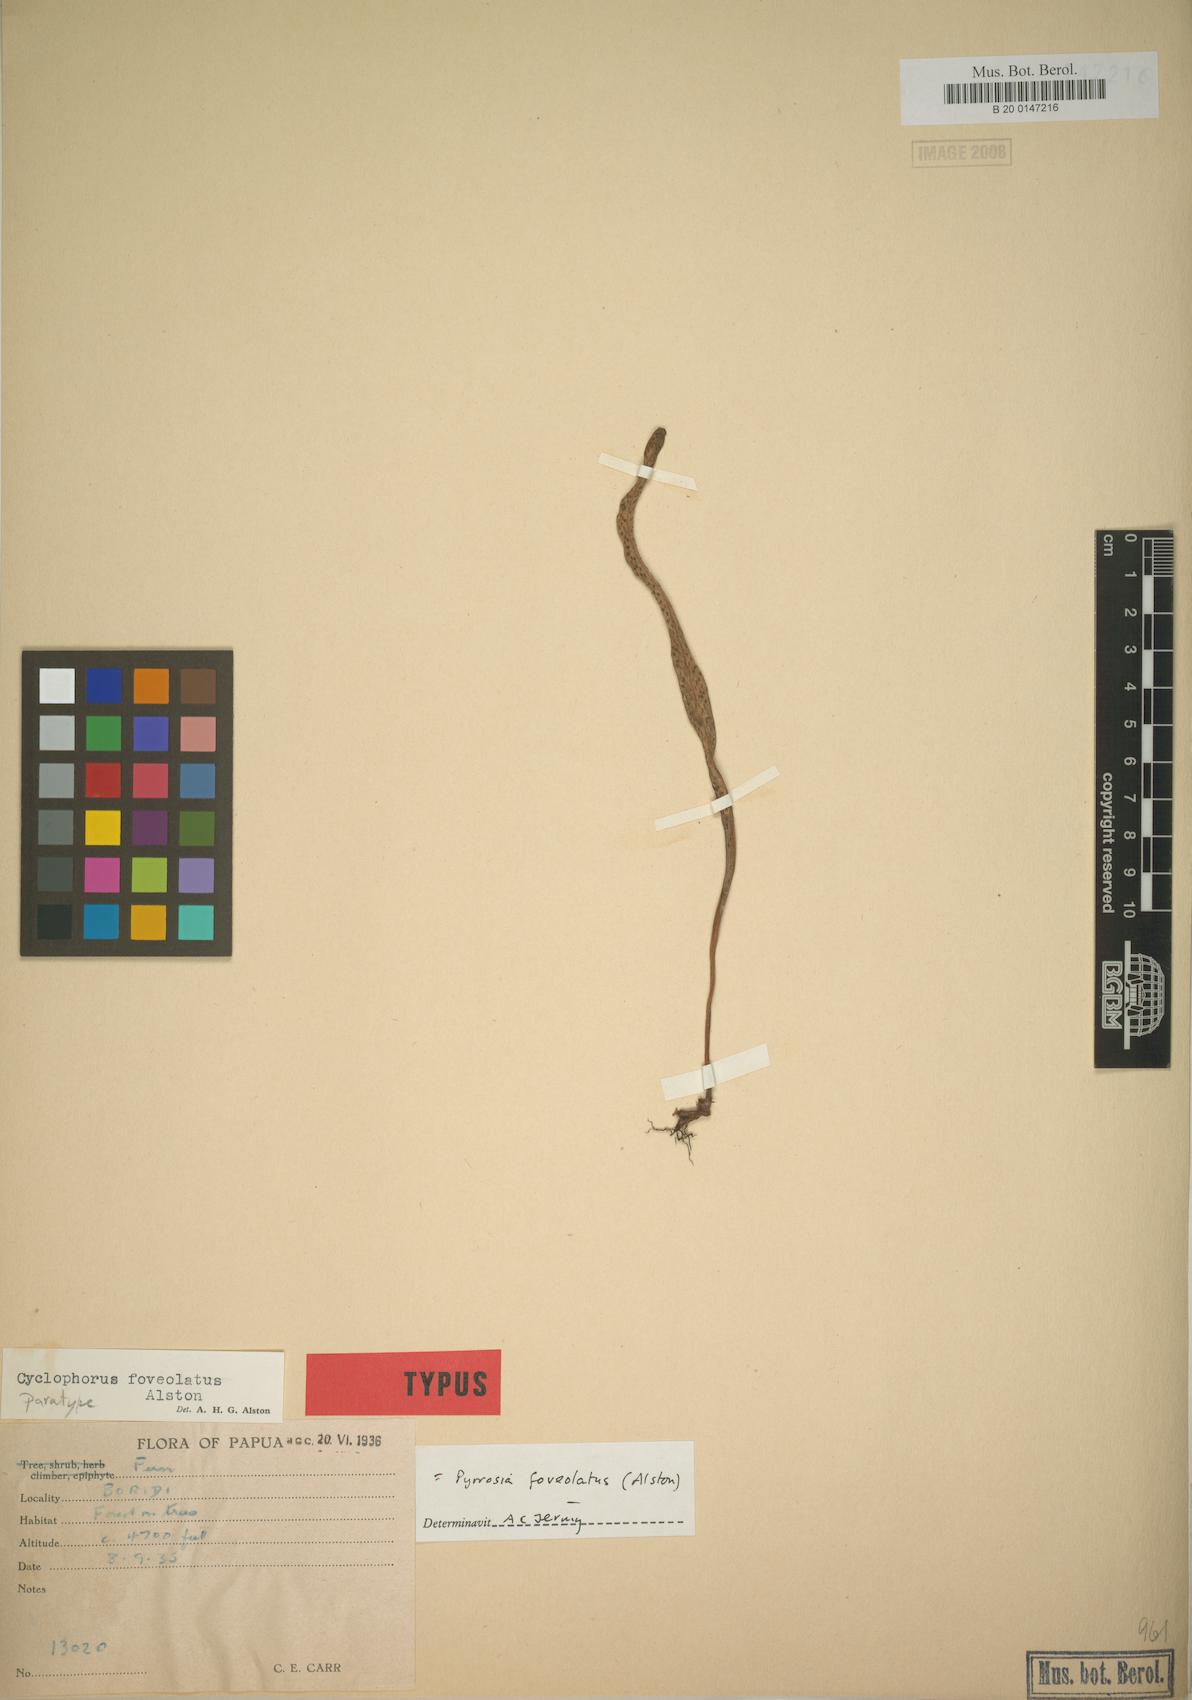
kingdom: Plantae
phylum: Tracheophyta
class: Polypodiopsida
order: Polypodiales
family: Polypodiaceae
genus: Pyrrosia
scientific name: Pyrrosia foveolata
